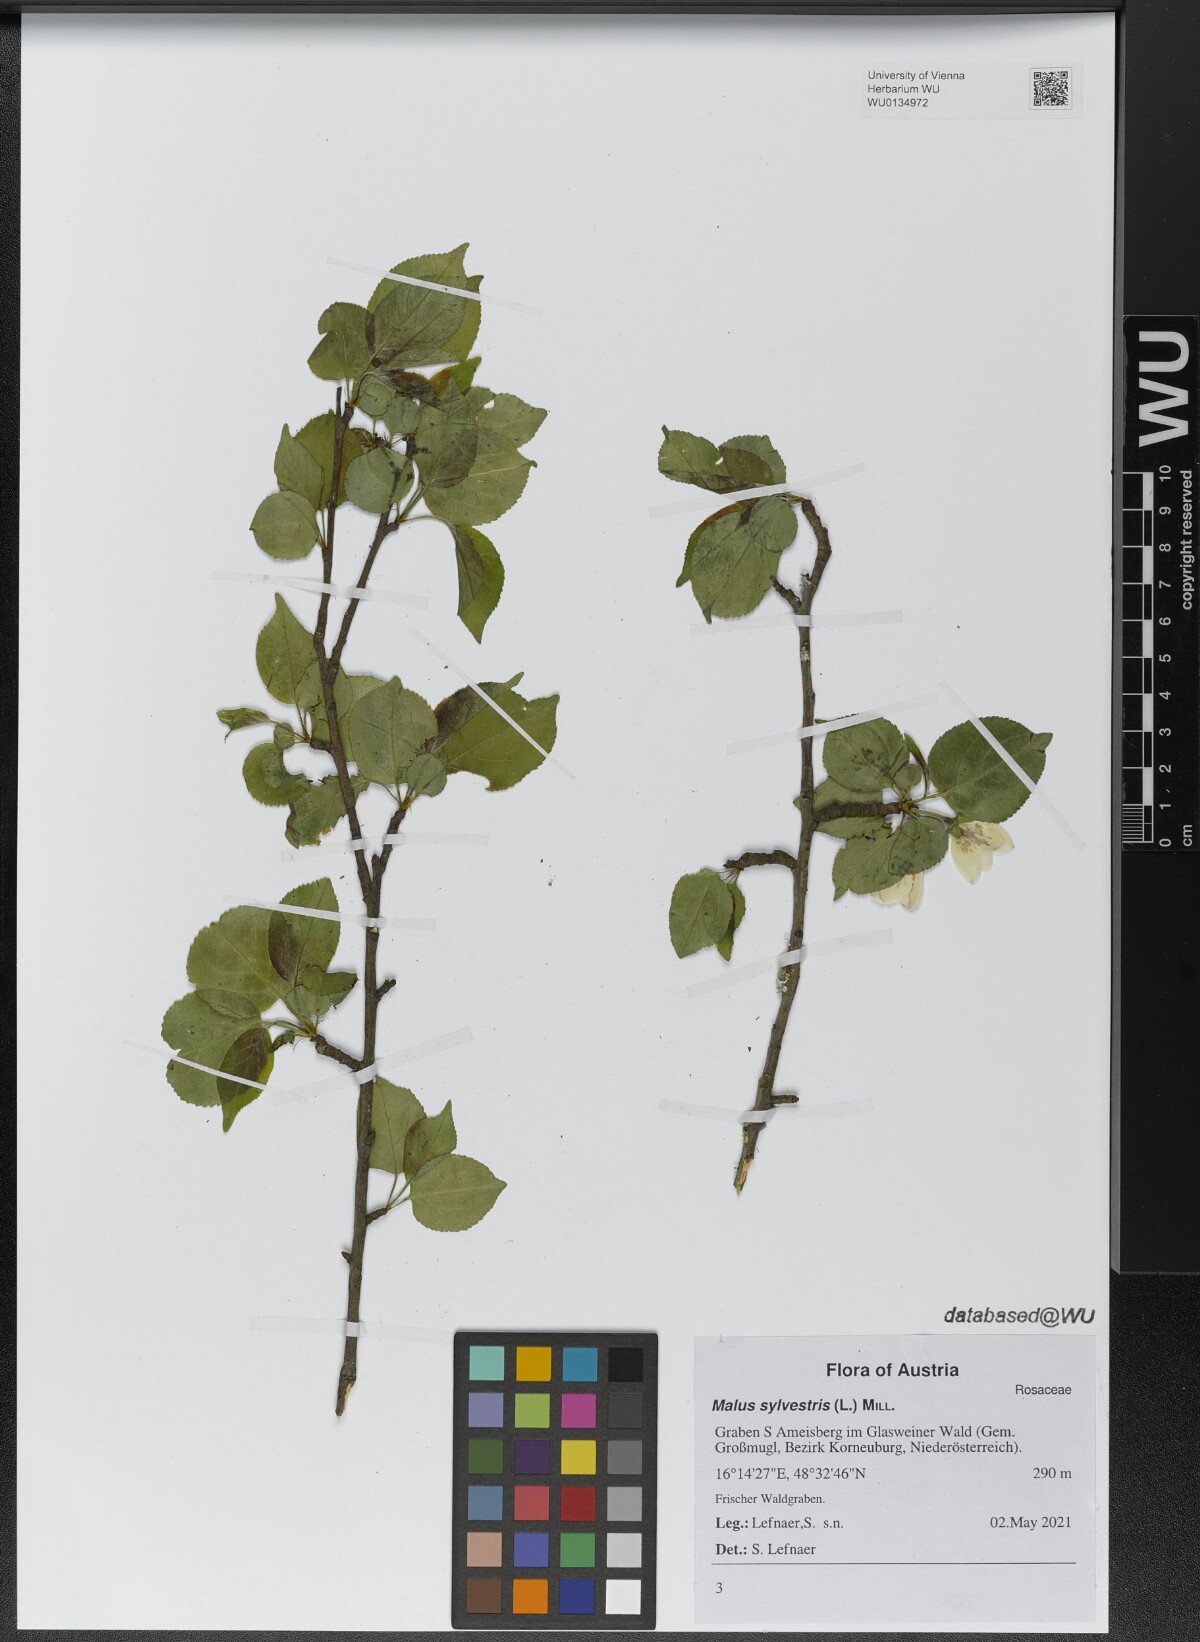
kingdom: Plantae
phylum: Tracheophyta
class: Magnoliopsida
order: Rosales
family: Rosaceae
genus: Malus
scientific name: Malus sylvestris
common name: Crab apple
